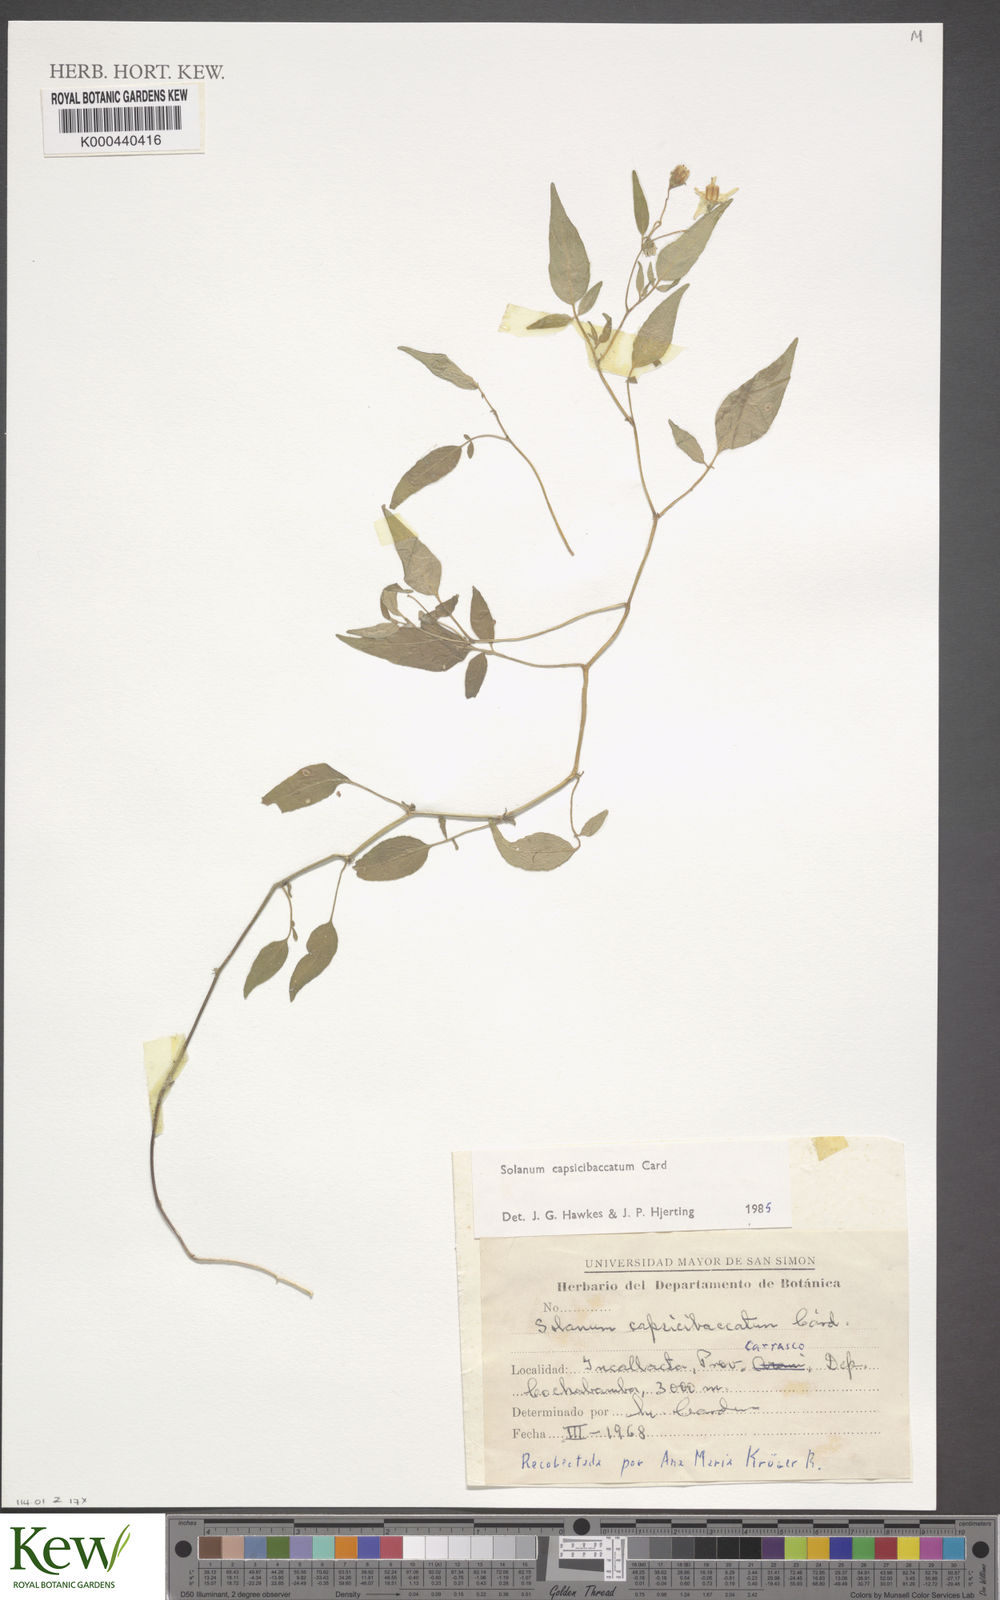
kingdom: Plantae
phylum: Tracheophyta
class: Magnoliopsida
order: Solanales
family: Solanaceae
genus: Solanum
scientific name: Solanum stipuloideum
